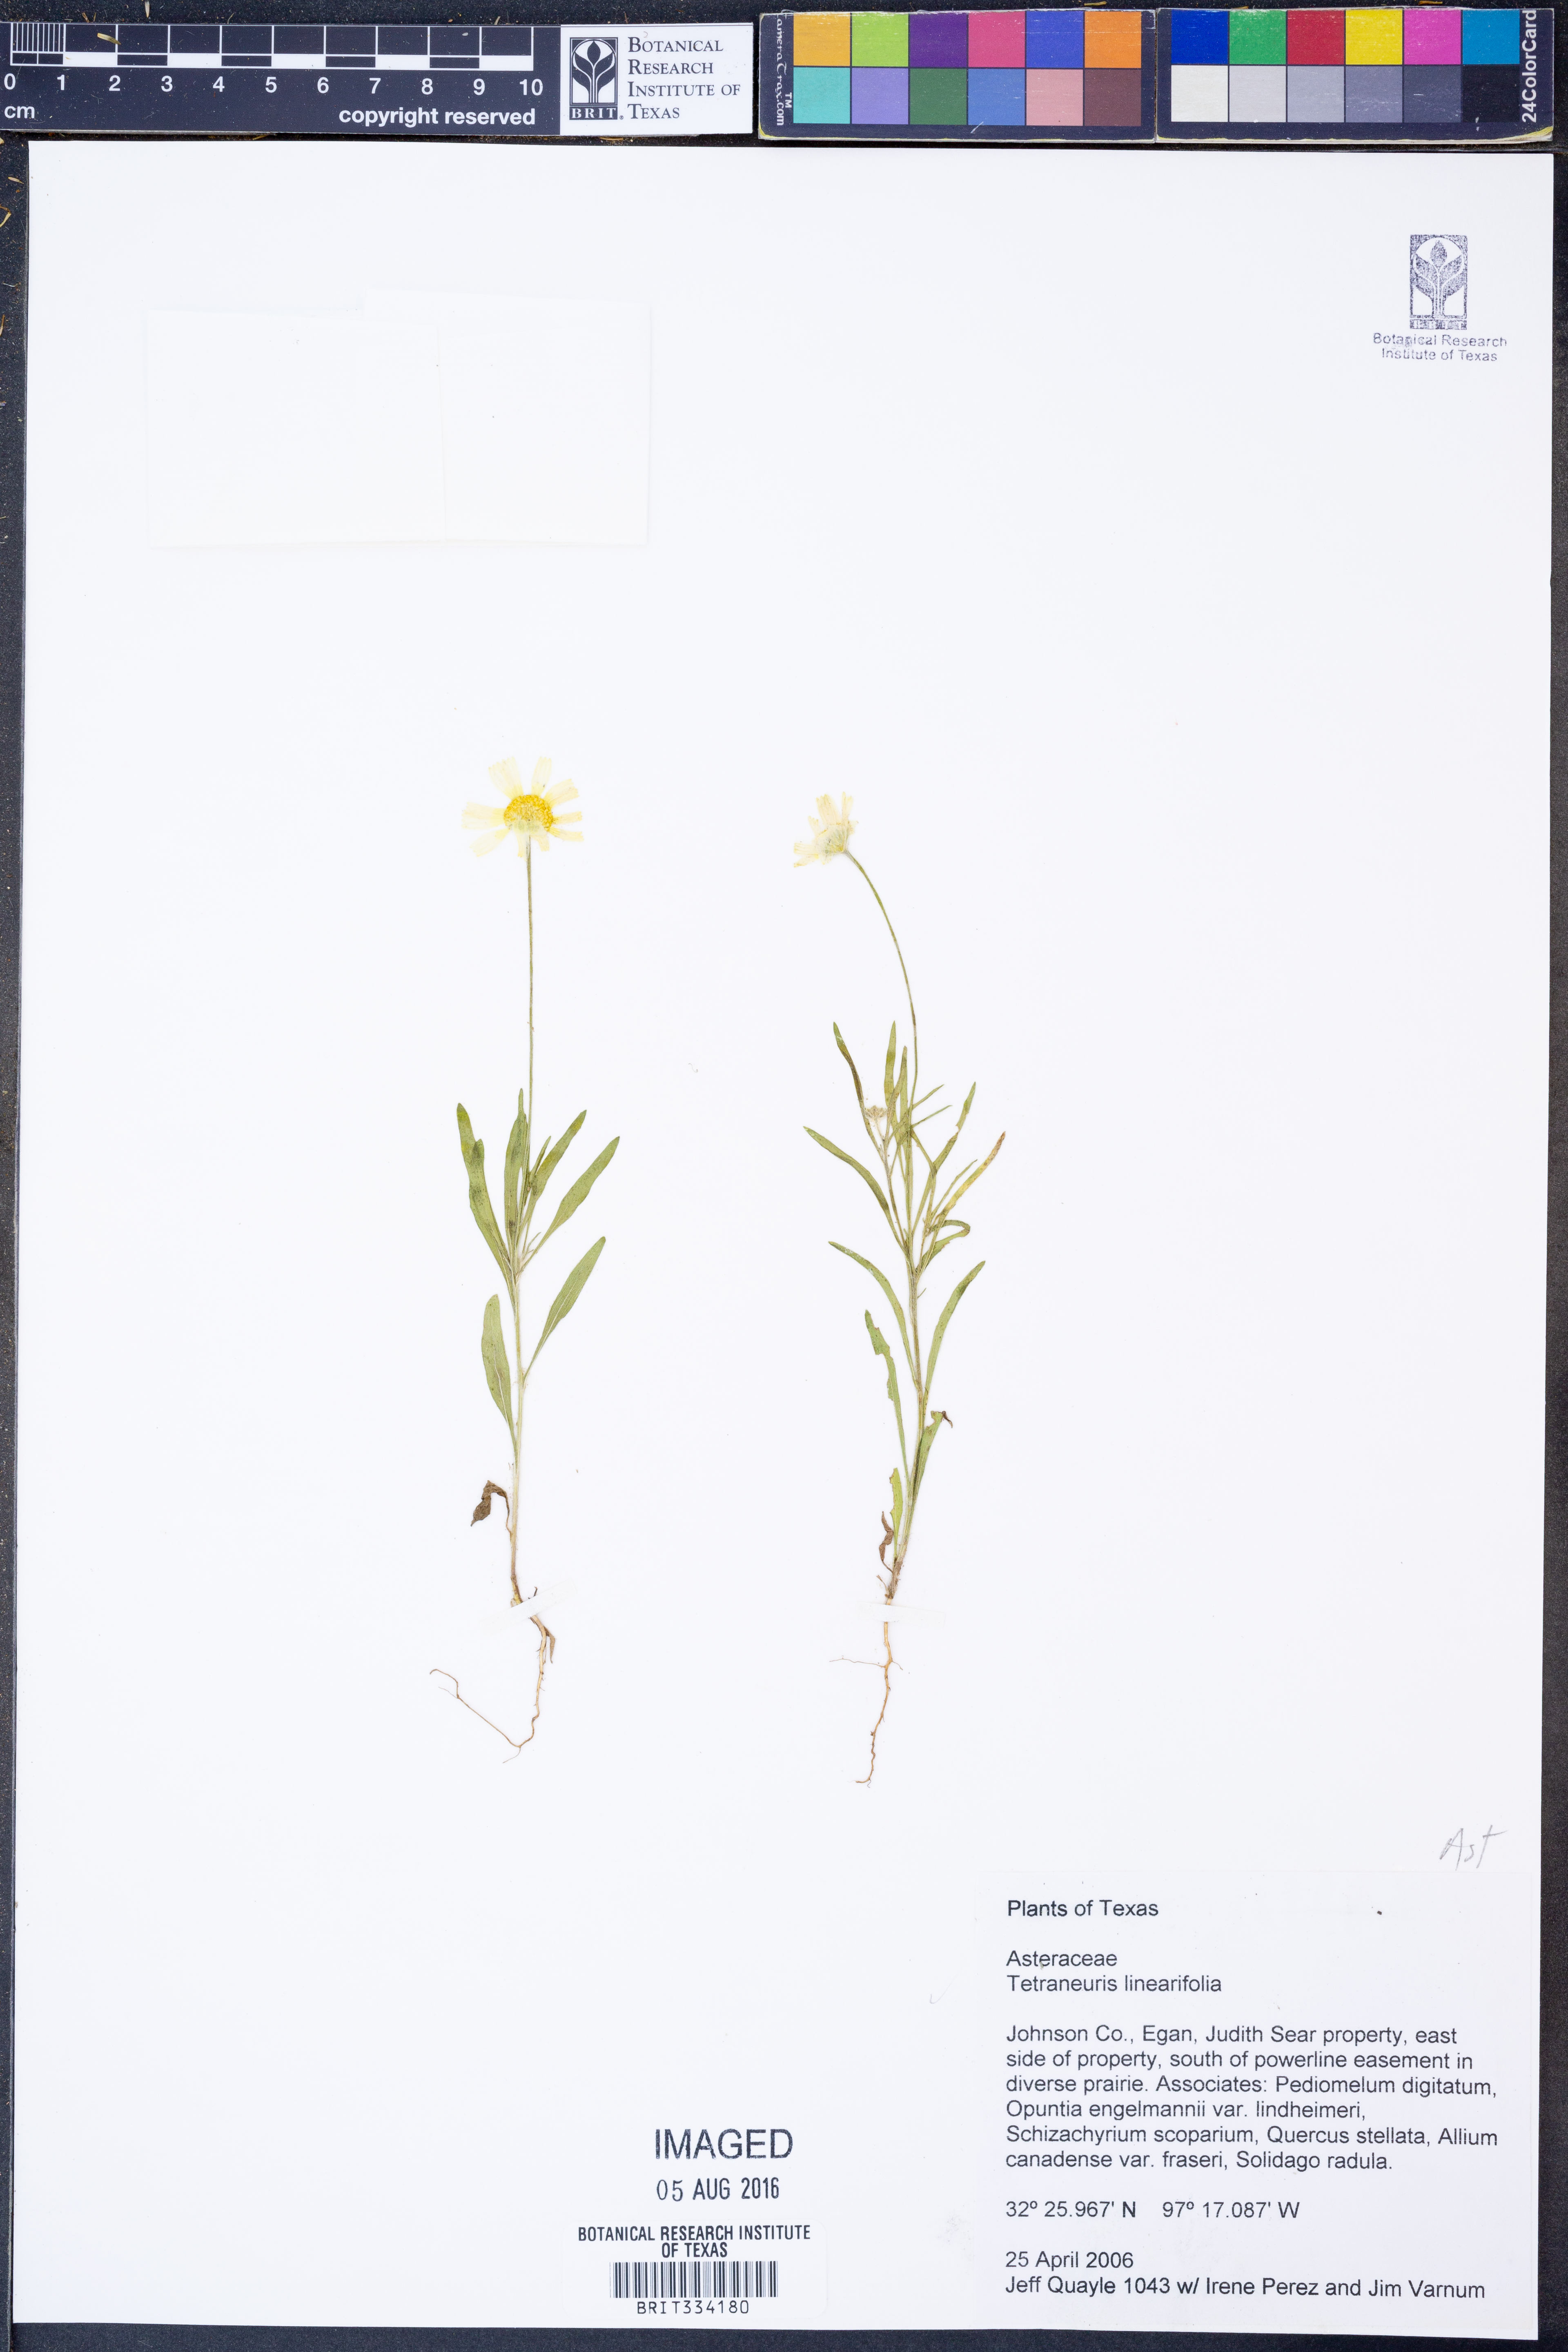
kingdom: Plantae
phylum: Tracheophyta
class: Magnoliopsida
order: Asterales
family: Asteraceae
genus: Tetraneuris
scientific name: Tetraneuris linearifolia
